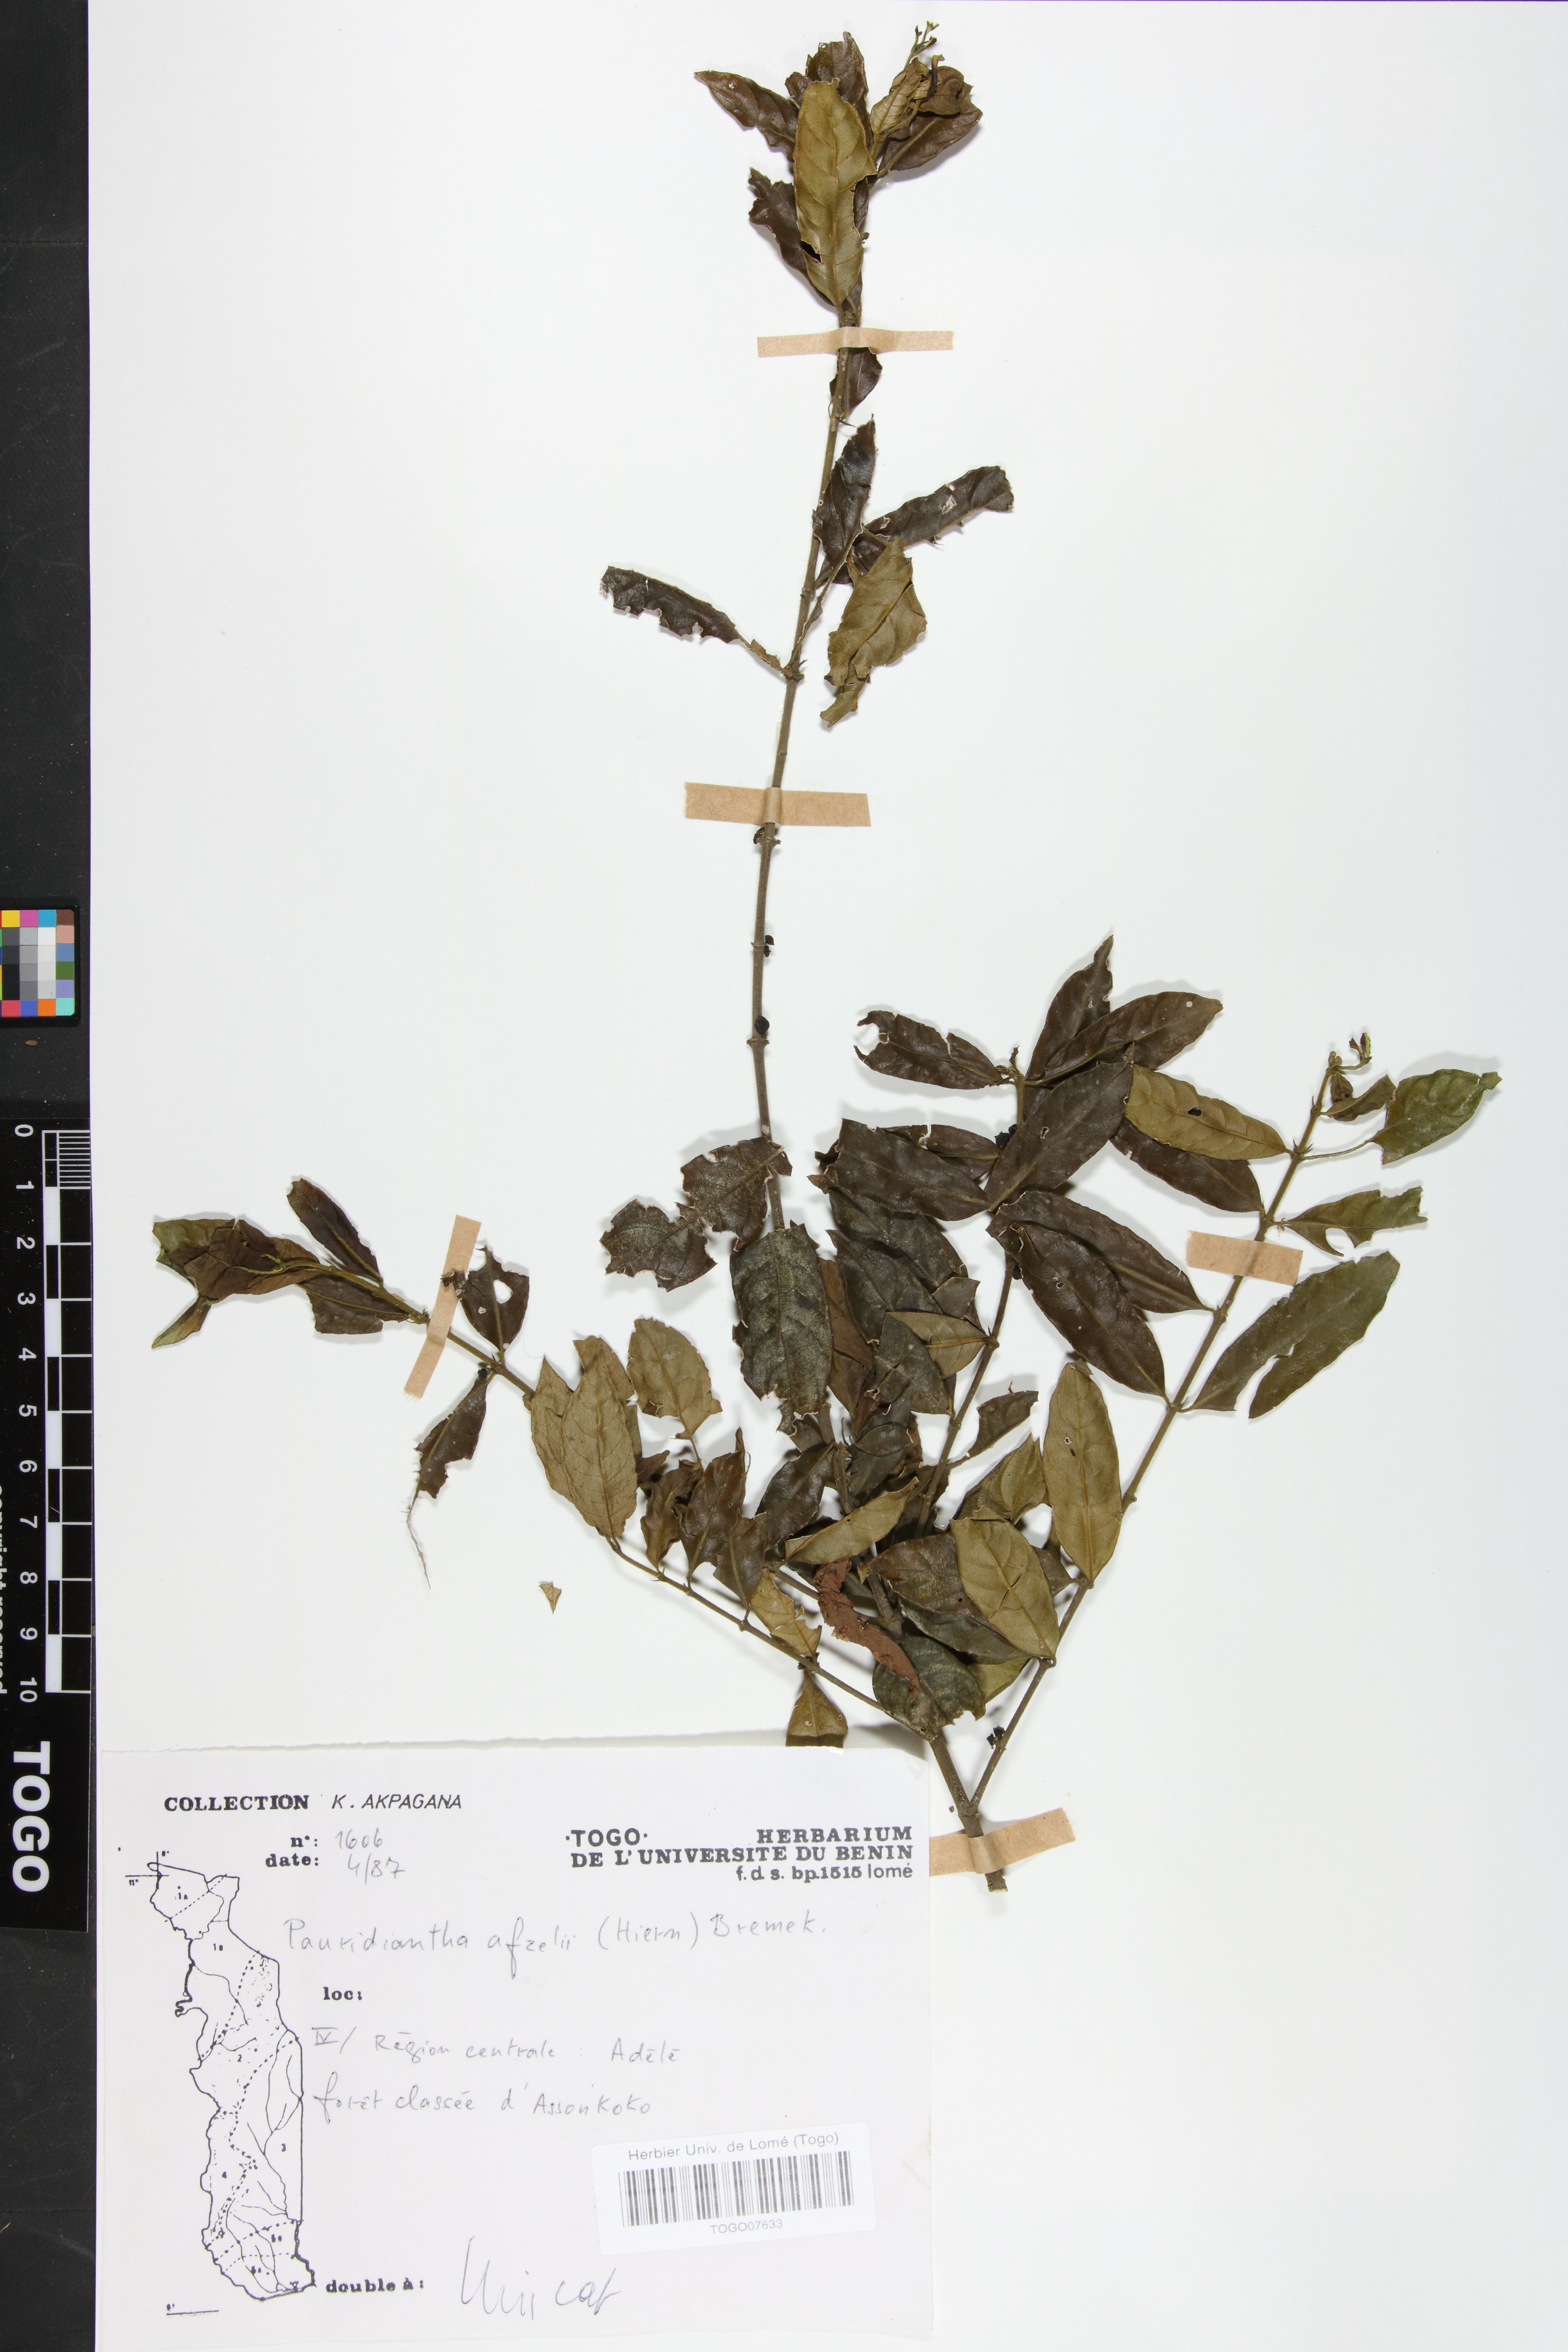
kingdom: Plantae
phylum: Tracheophyta
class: Magnoliopsida
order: Gentianales
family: Rubiaceae
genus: Pauridiantha
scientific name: Pauridiantha afzelii
